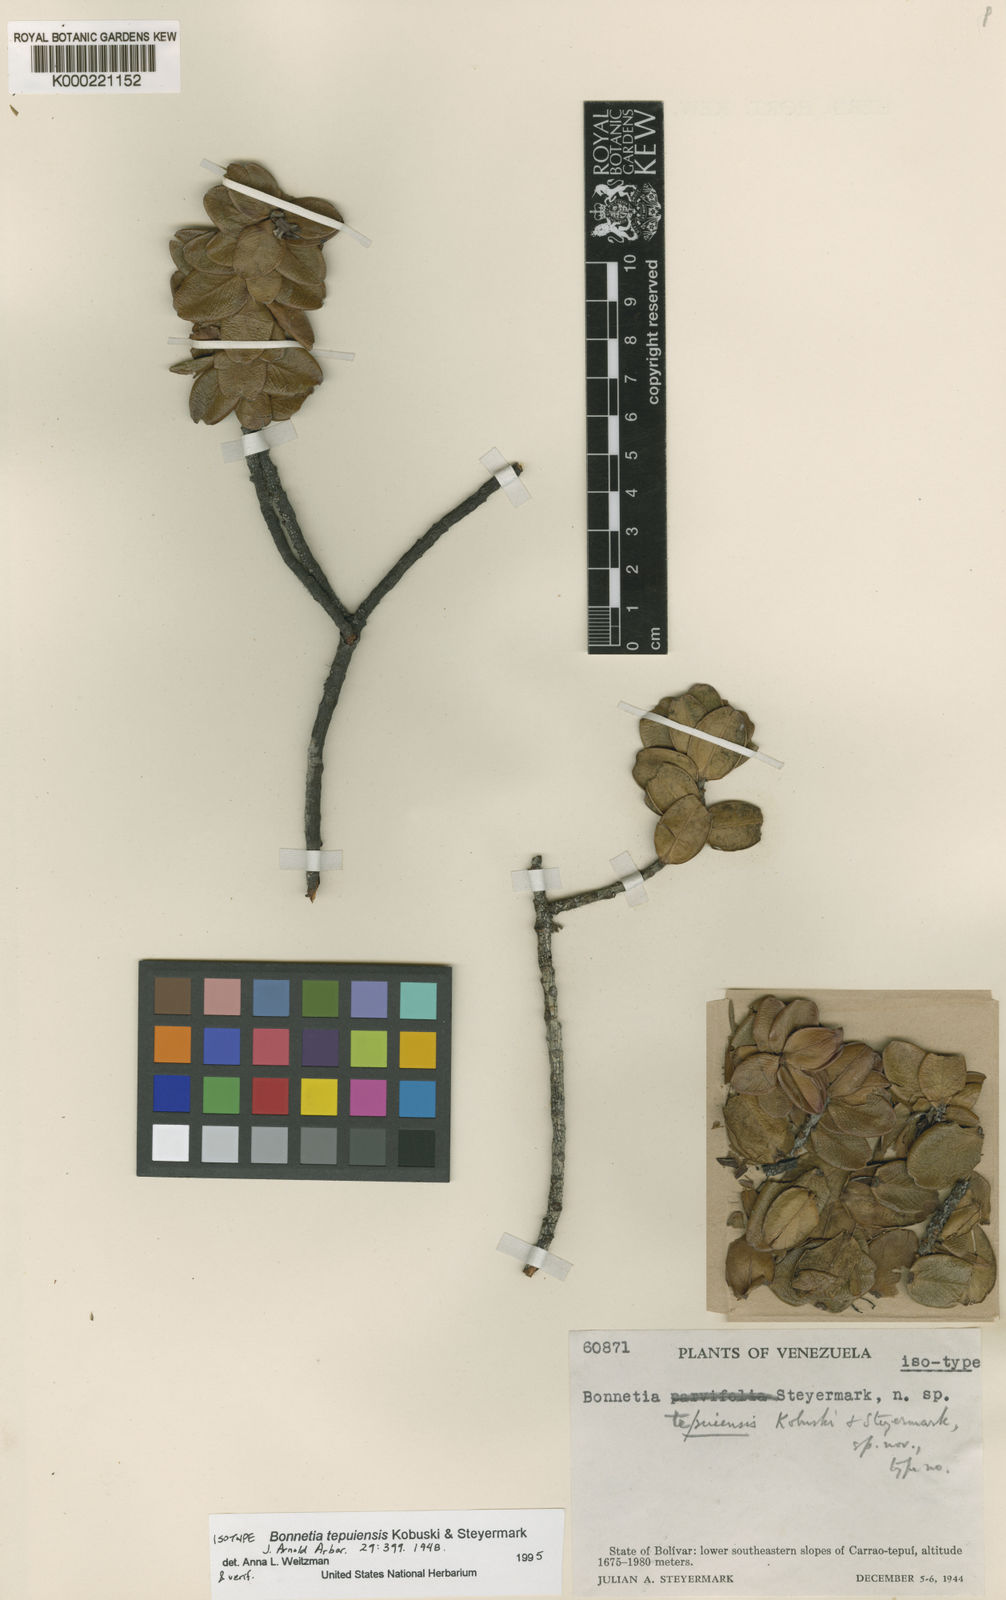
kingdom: Plantae
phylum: Tracheophyta
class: Magnoliopsida
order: Malpighiales
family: Bonnetiaceae
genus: Bonnetia
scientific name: Bonnetia tepuiensis
